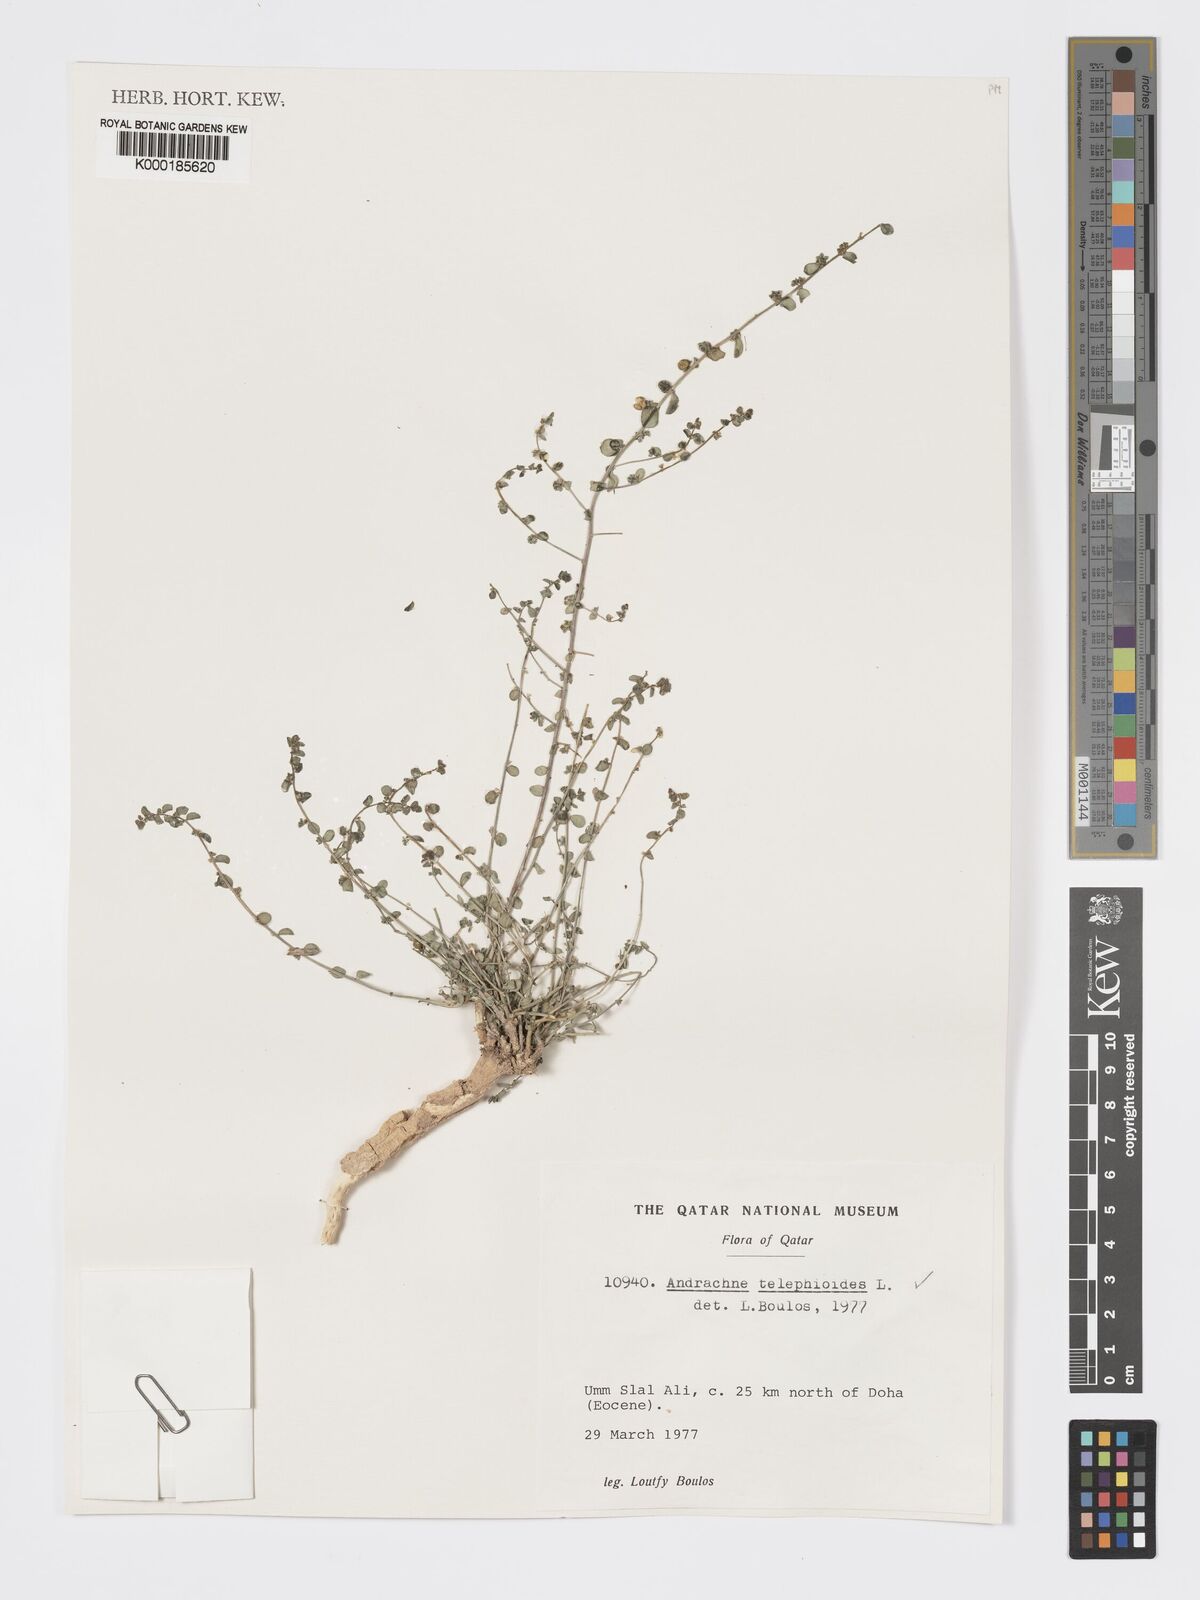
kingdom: Plantae
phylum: Tracheophyta
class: Magnoliopsida
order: Malpighiales
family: Phyllanthaceae
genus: Andrachne
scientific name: Andrachne telephioides
